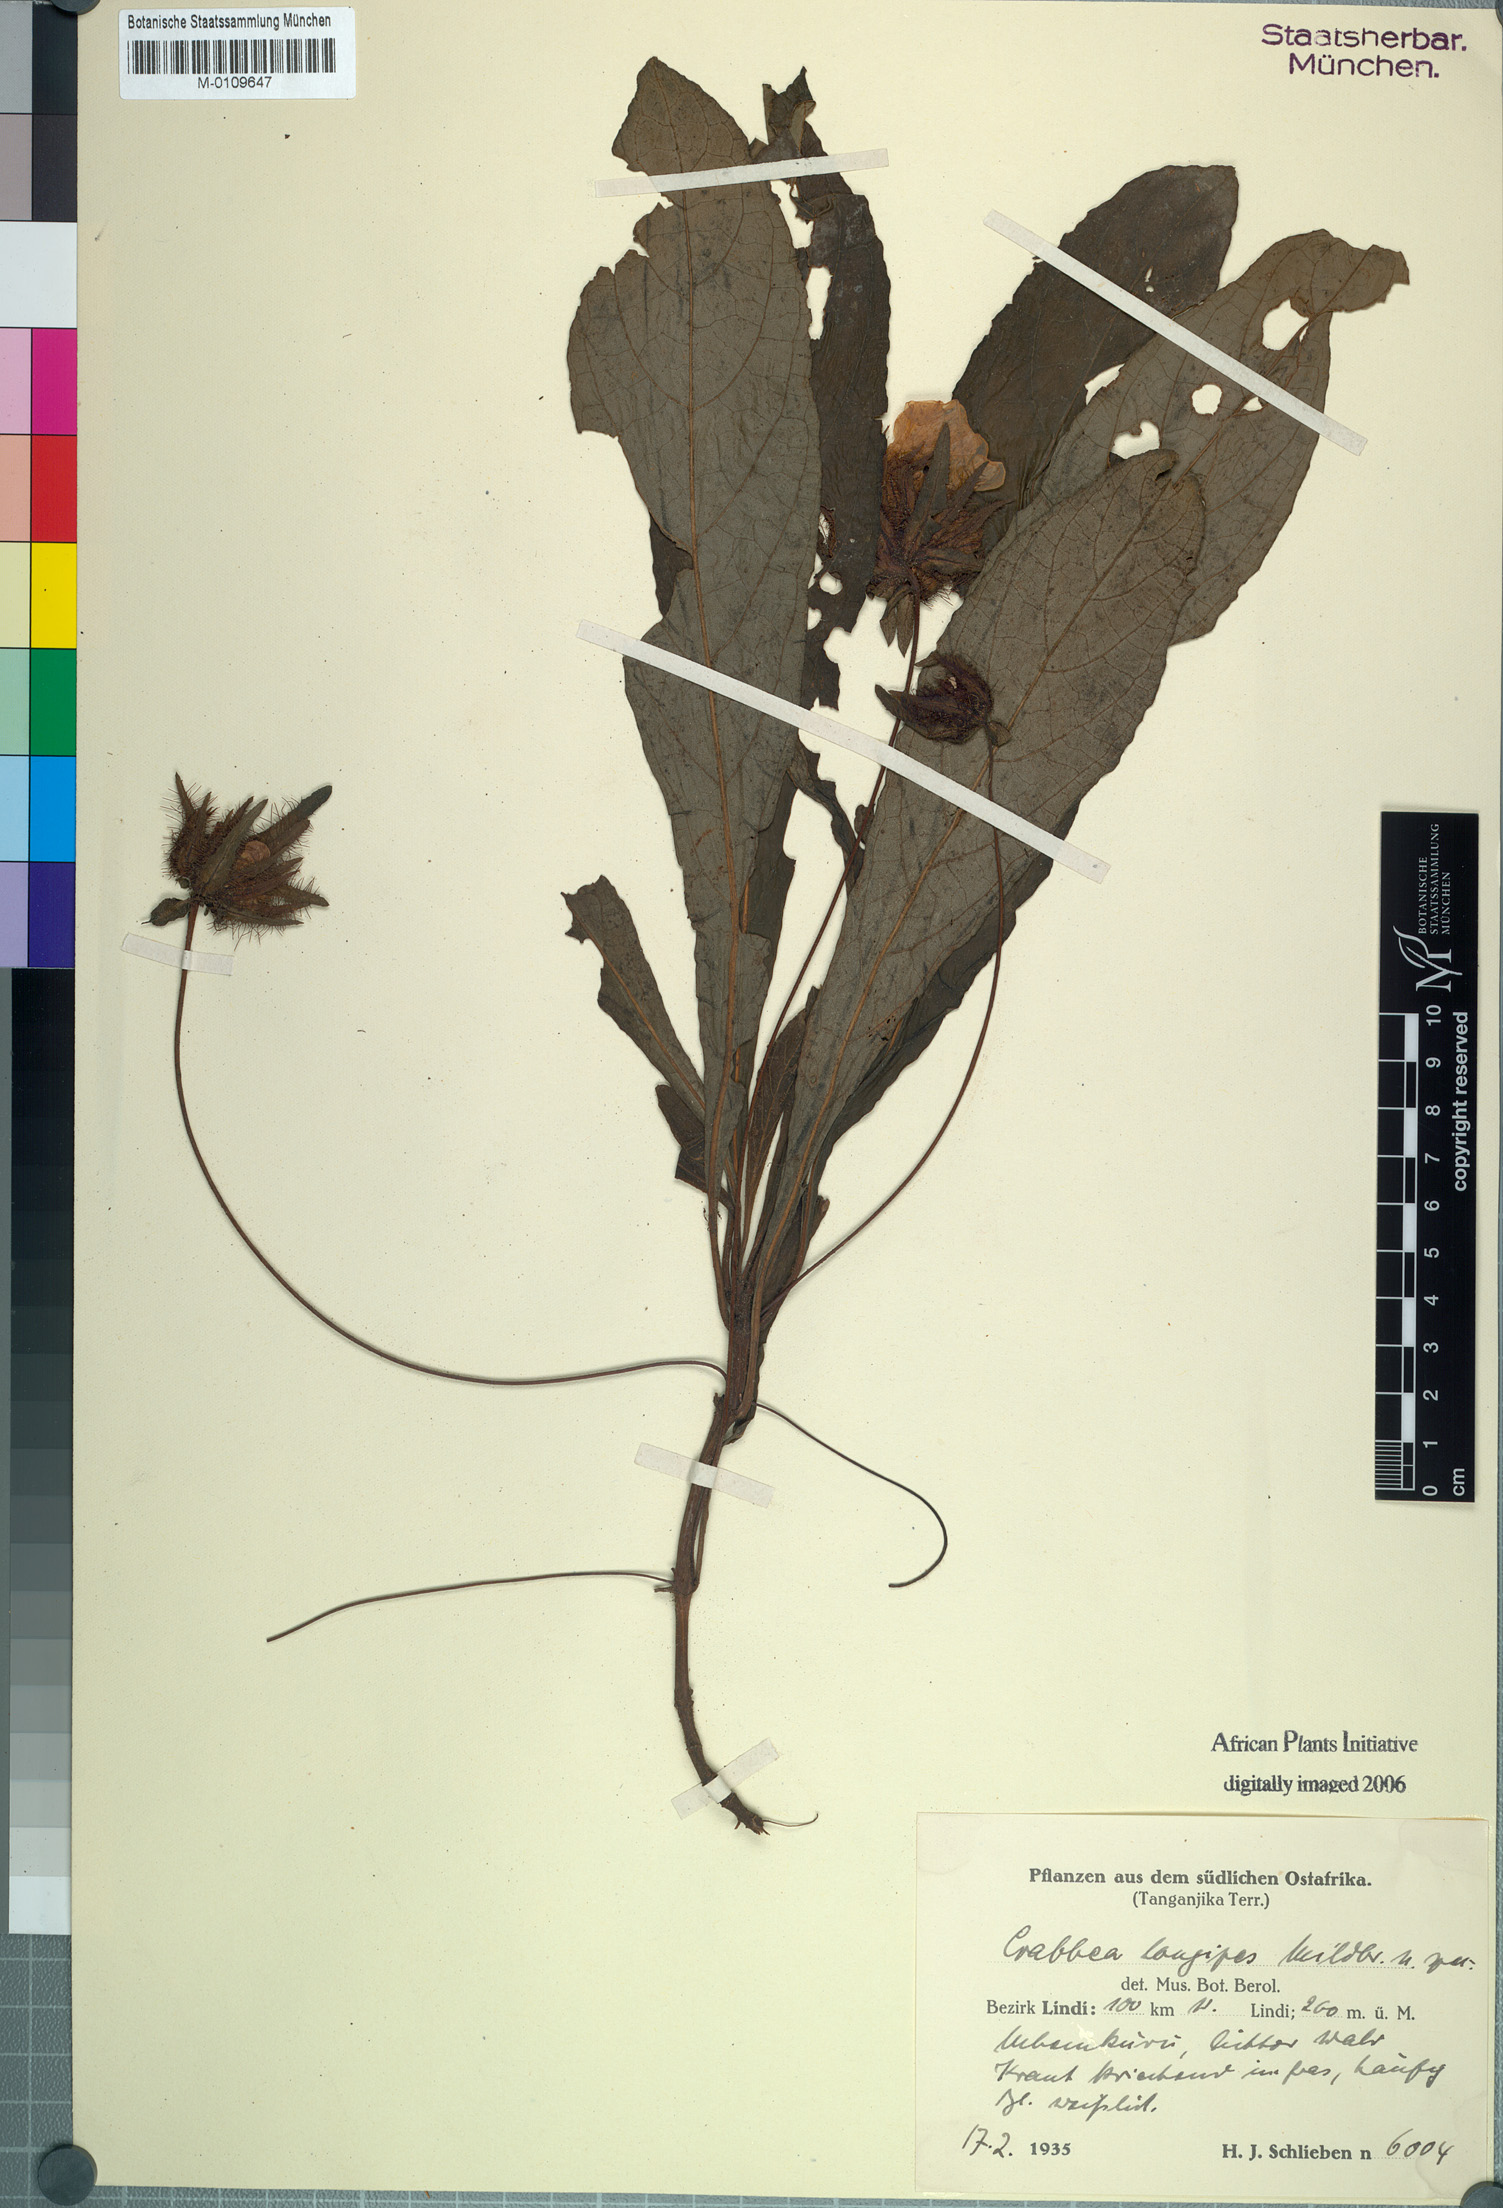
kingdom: Plantae
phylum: Tracheophyta
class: Magnoliopsida
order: Lamiales
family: Acanthaceae
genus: Crabbea
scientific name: Crabbea longipes
